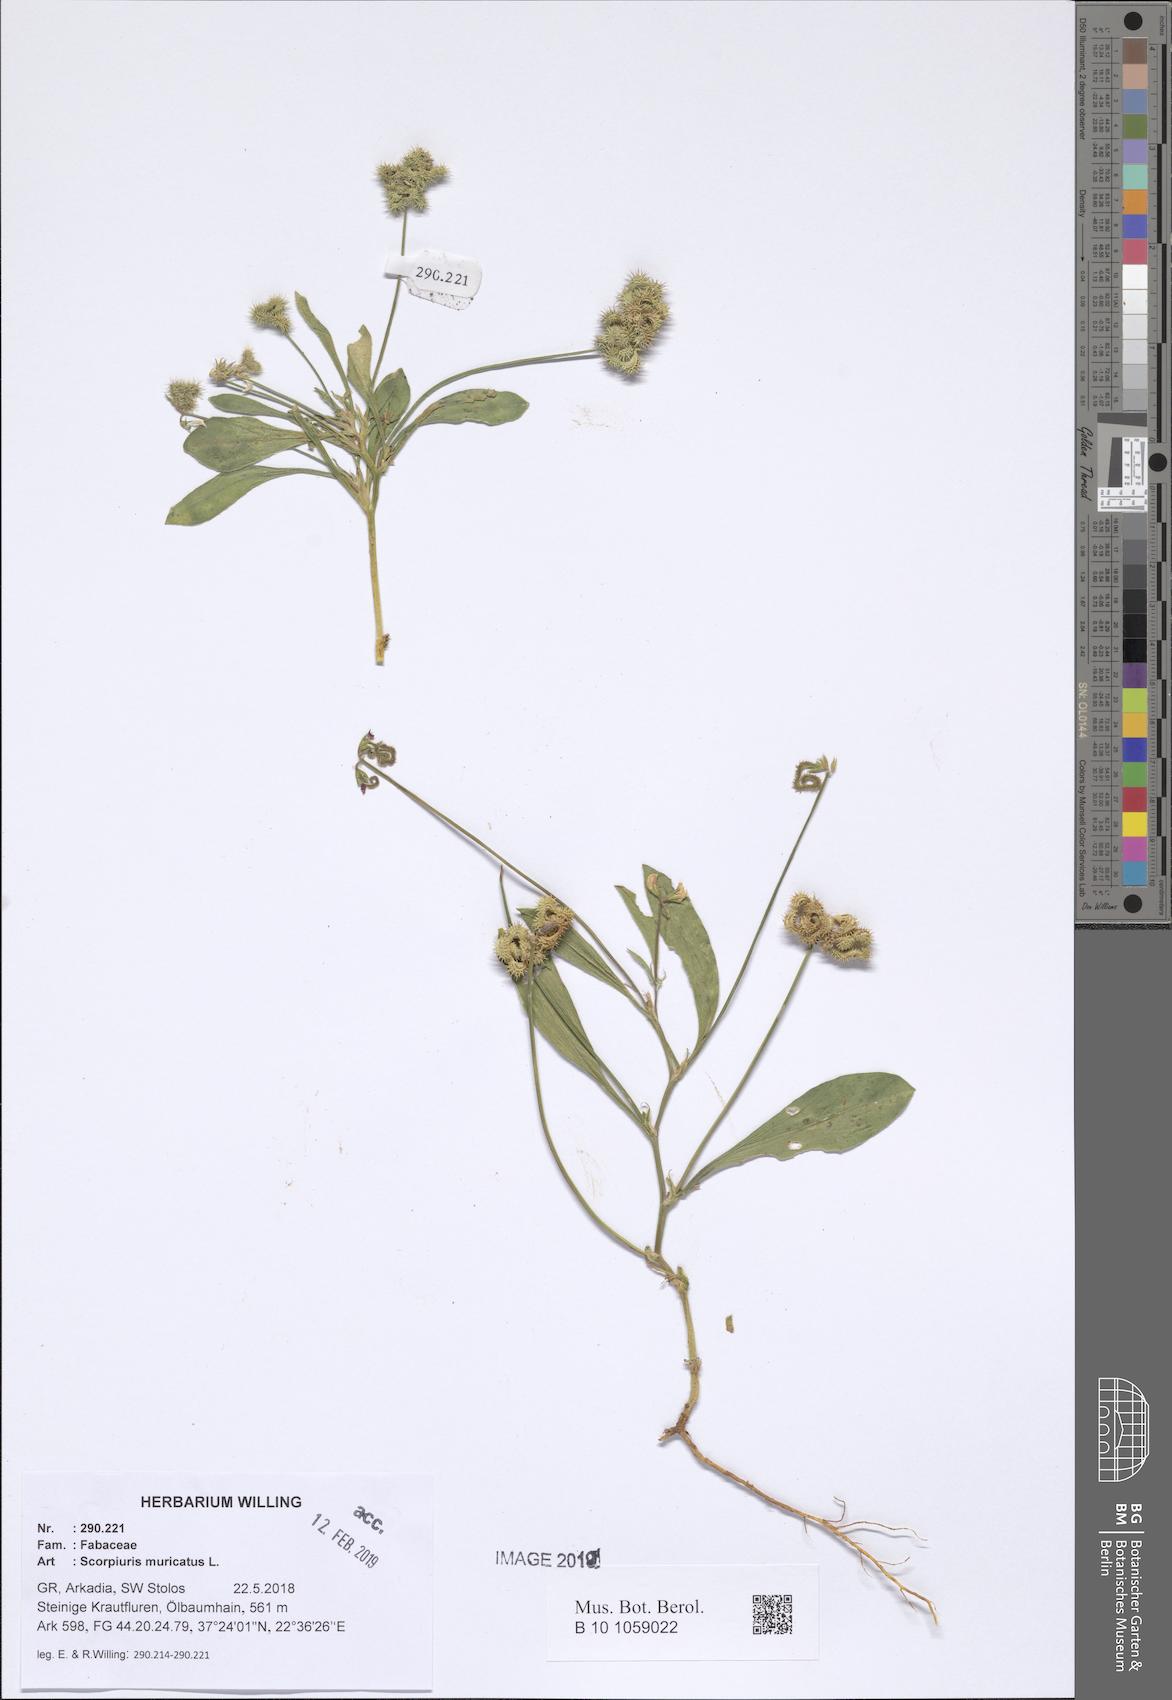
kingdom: Plantae
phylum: Tracheophyta
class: Magnoliopsida
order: Fabales
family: Fabaceae
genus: Scorpiurus
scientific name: Scorpiurus muricatus
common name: Caterpillar-plant
